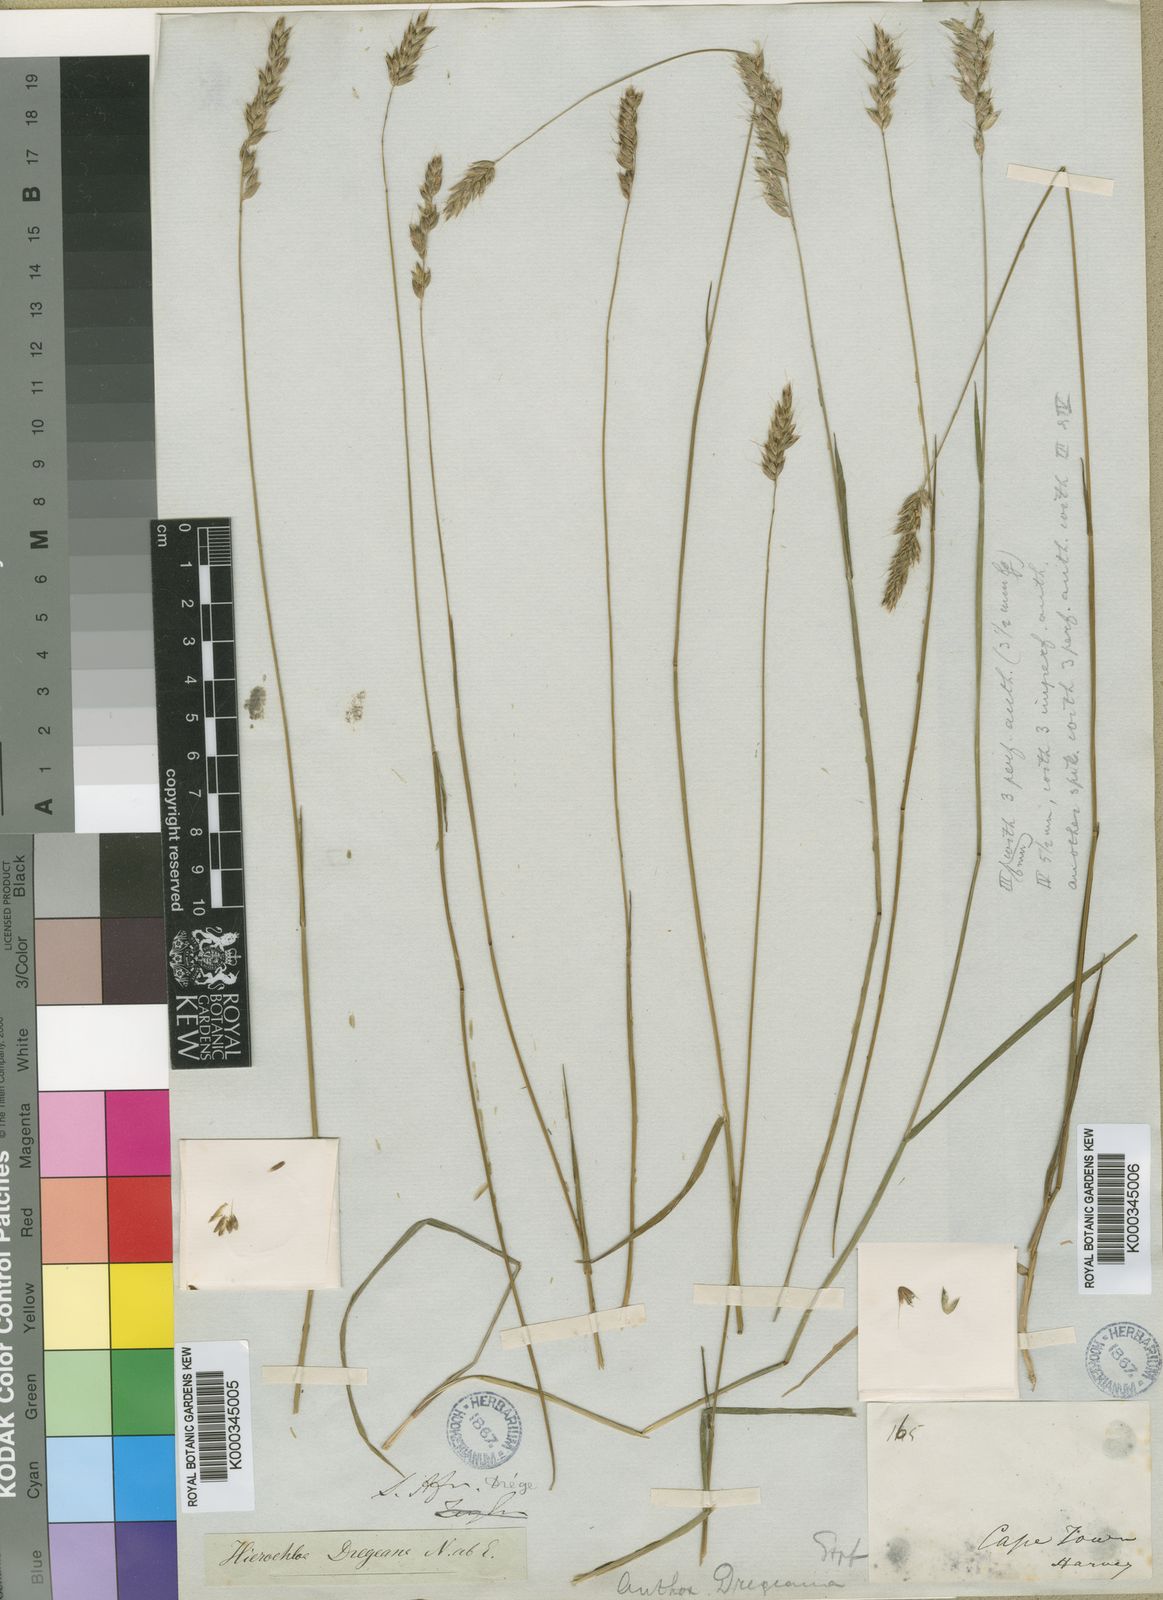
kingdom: Plantae
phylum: Tracheophyta
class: Liliopsida
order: Poales
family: Poaceae
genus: Anthoxanthum
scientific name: Anthoxanthum dregeanum
